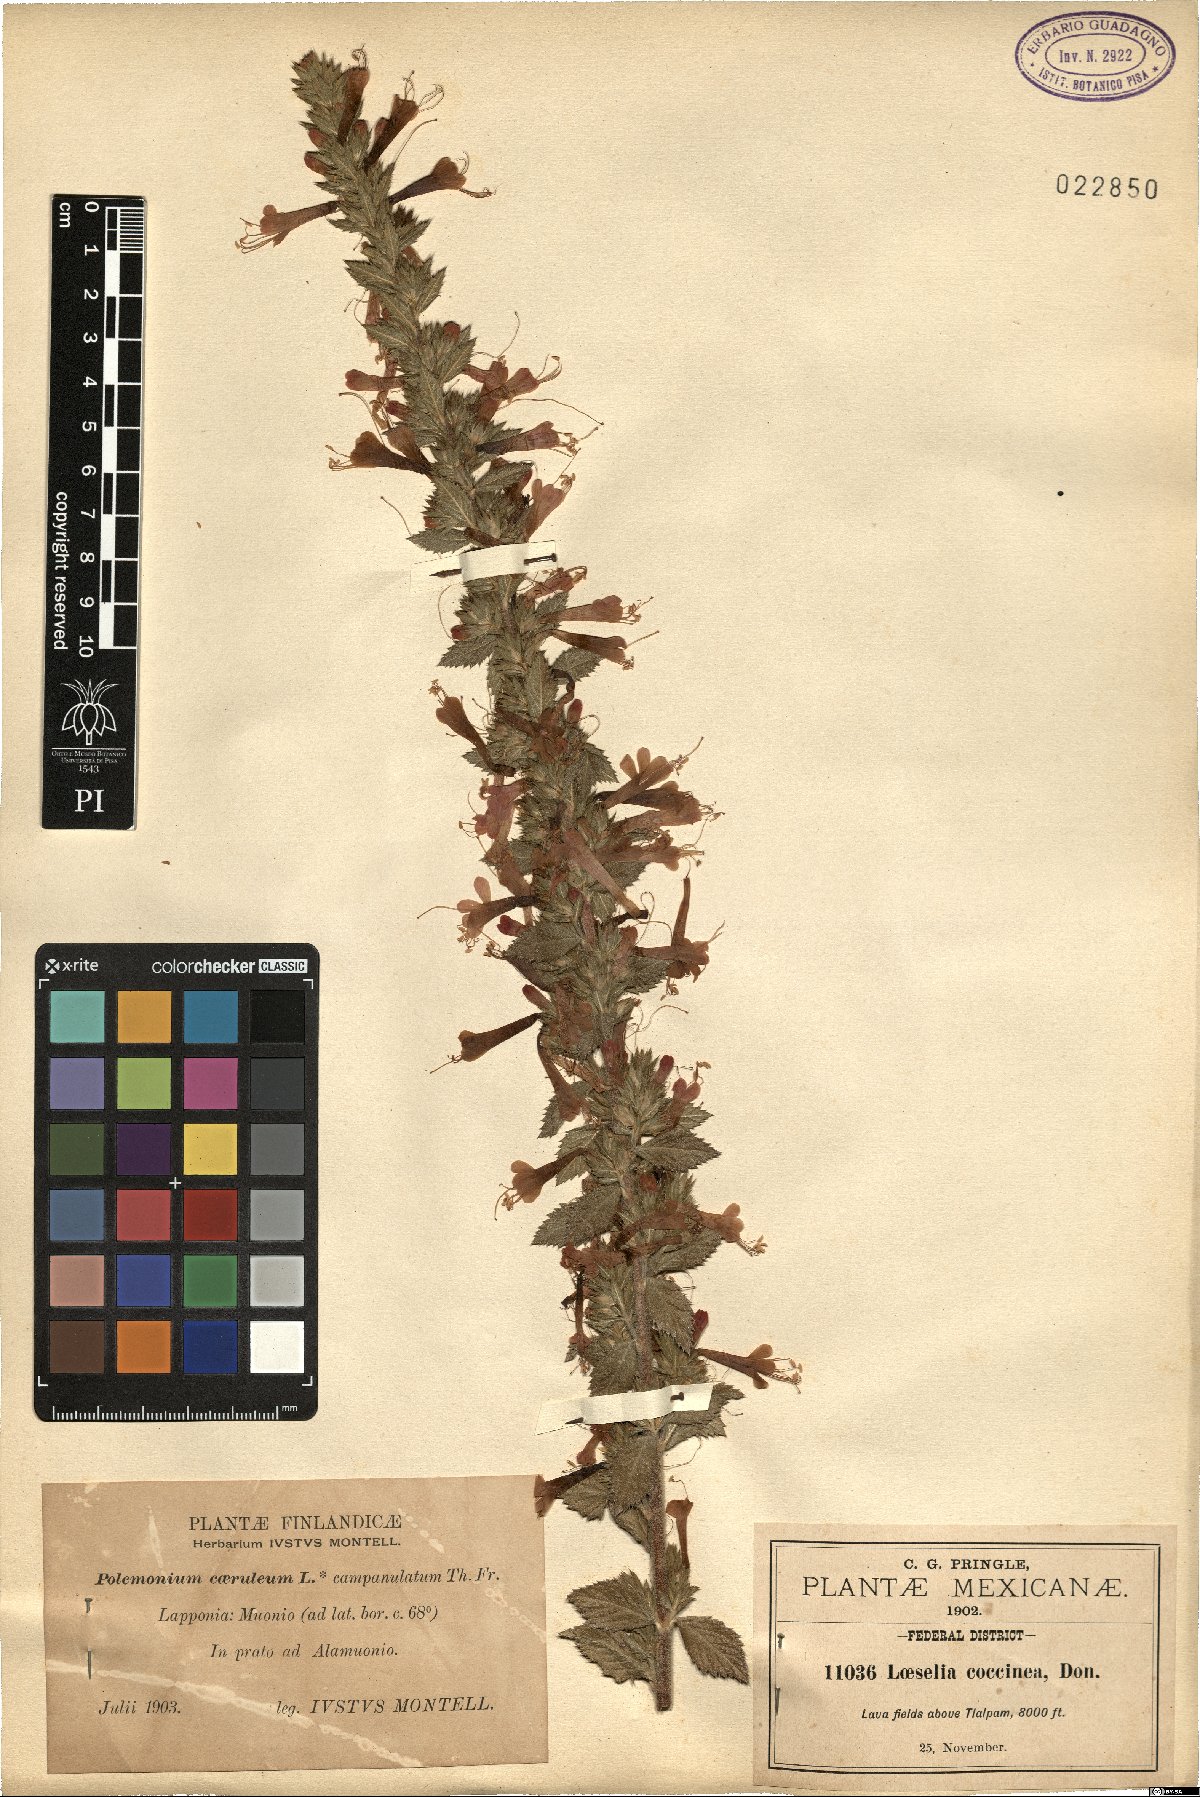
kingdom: Plantae
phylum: Tracheophyta
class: Magnoliopsida
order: Ericales
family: Polemoniaceae
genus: Loeselia
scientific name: Loeselia mexicana
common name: Mexican false calico
